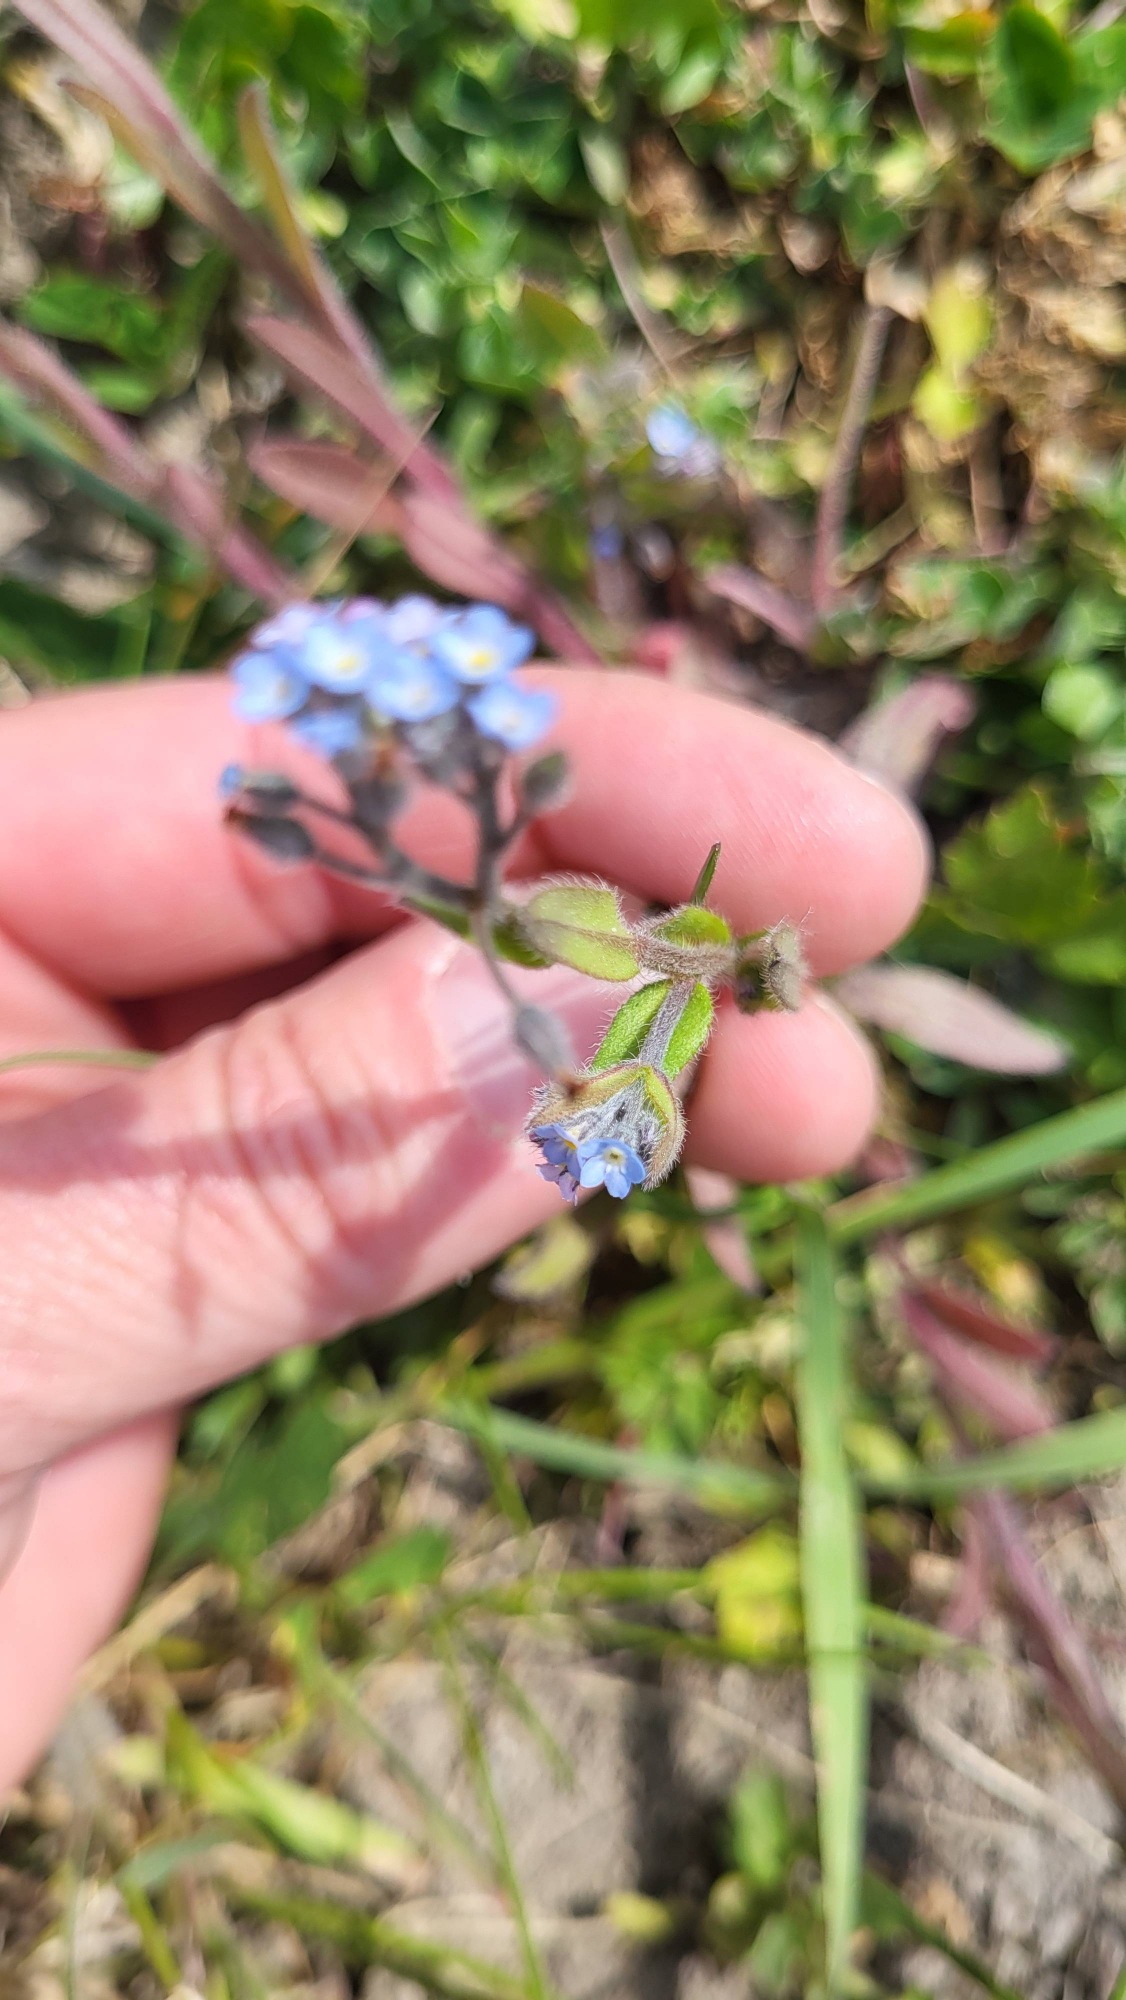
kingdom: Plantae
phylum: Tracheophyta
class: Magnoliopsida
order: Boraginales
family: Boraginaceae
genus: Myosotis
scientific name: Myosotis arvensis
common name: Mark-forglemmigej
